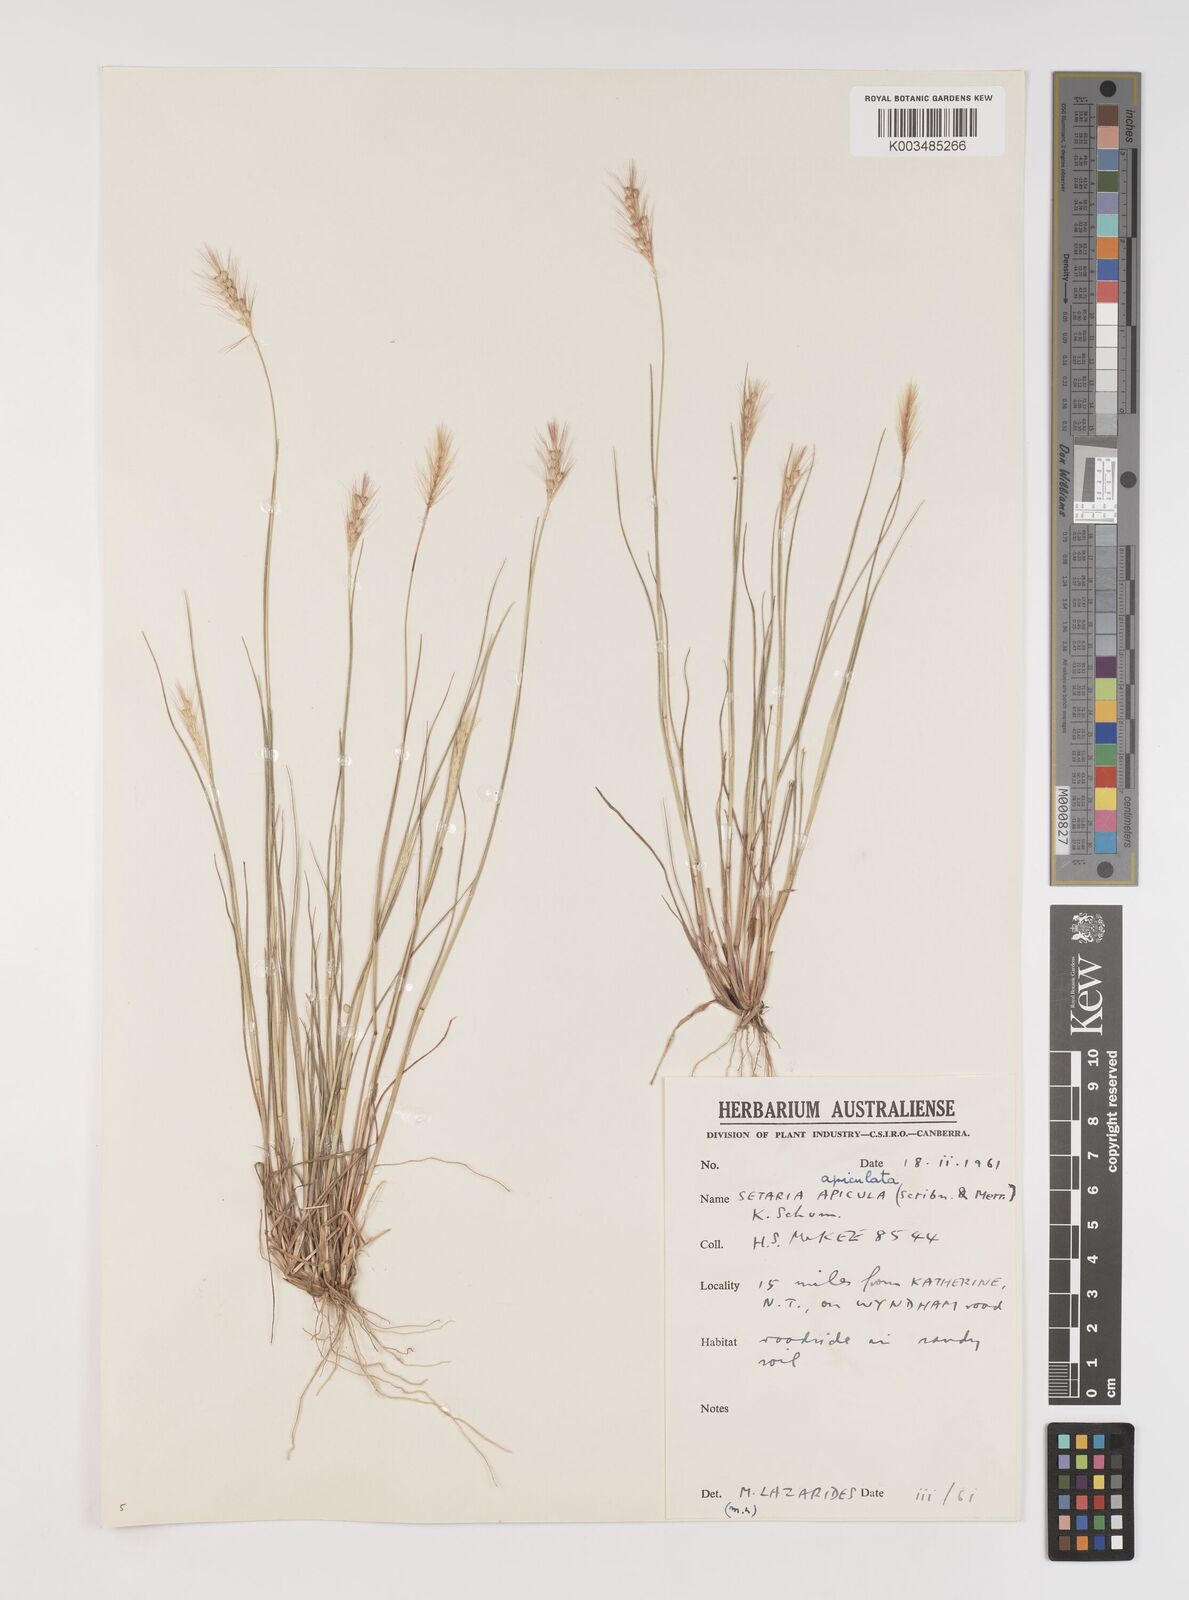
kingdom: Plantae
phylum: Tracheophyta
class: Liliopsida
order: Poales
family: Poaceae
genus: Setaria
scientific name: Setaria surgens
